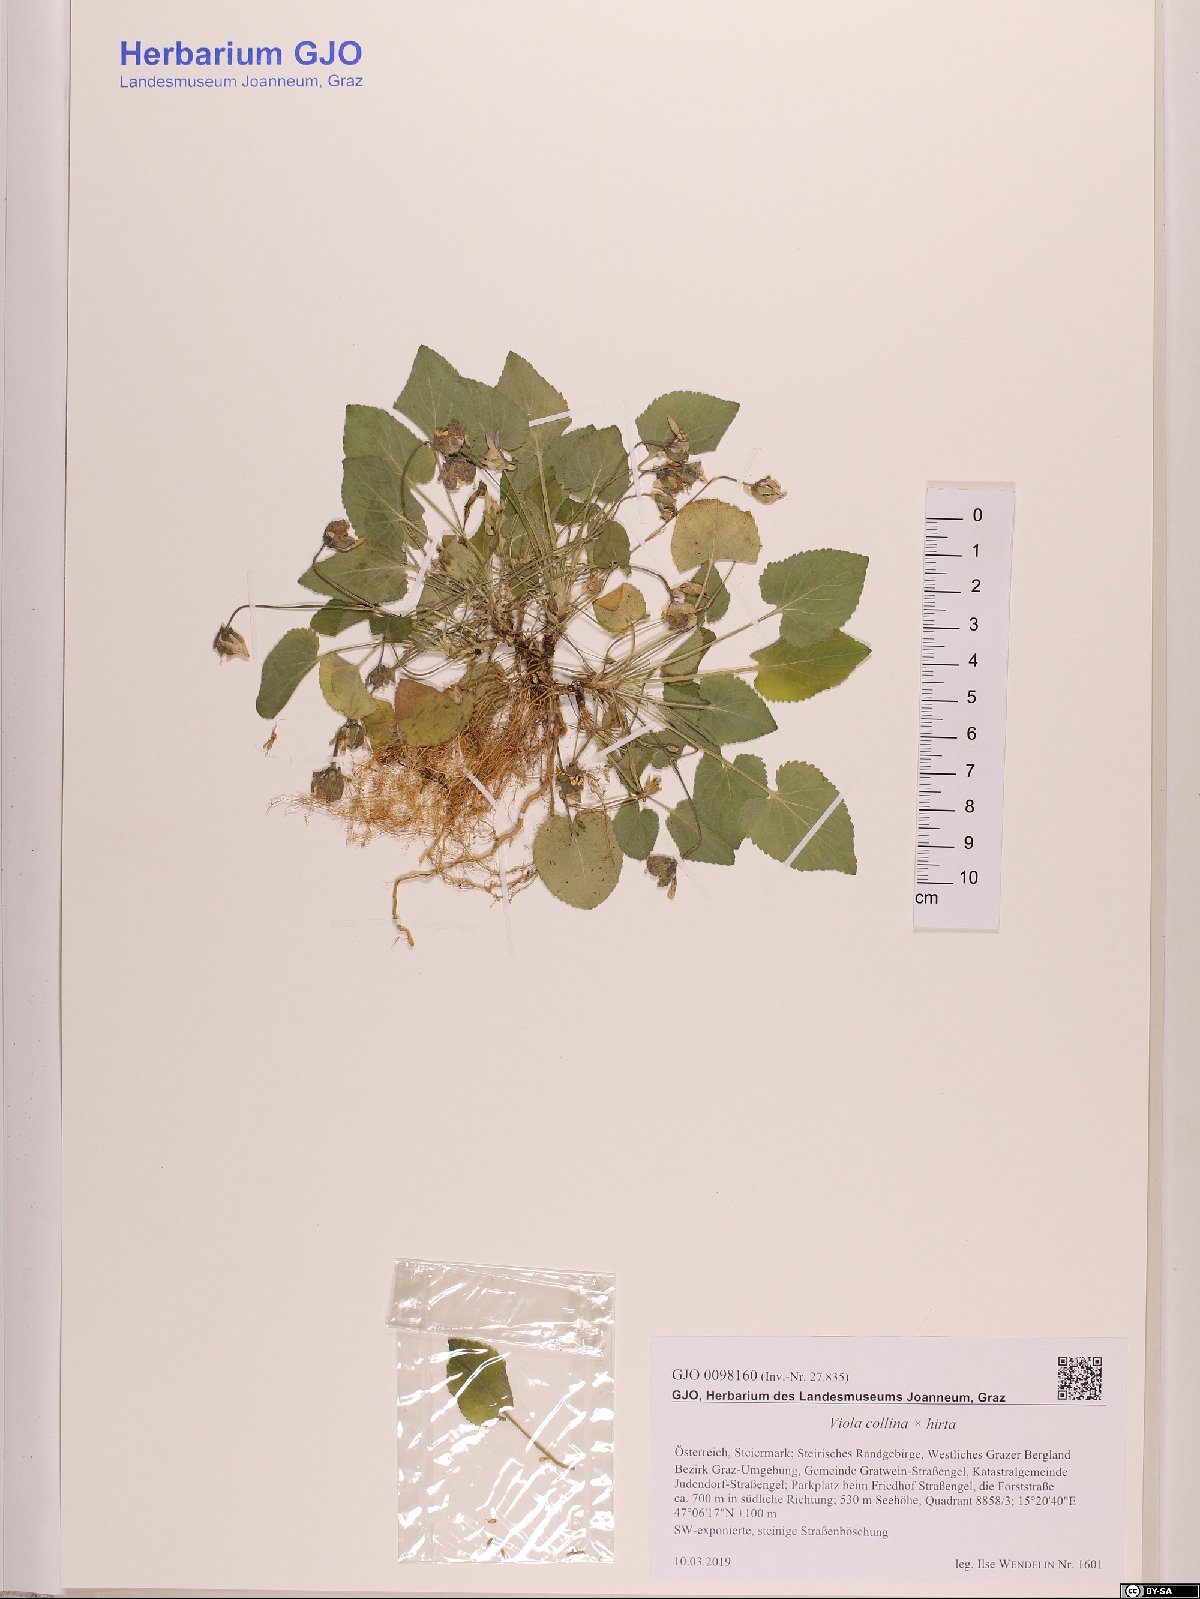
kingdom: Plantae
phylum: Tracheophyta
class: Magnoliopsida
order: Malpighiales
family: Violaceae
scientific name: Violaceae
